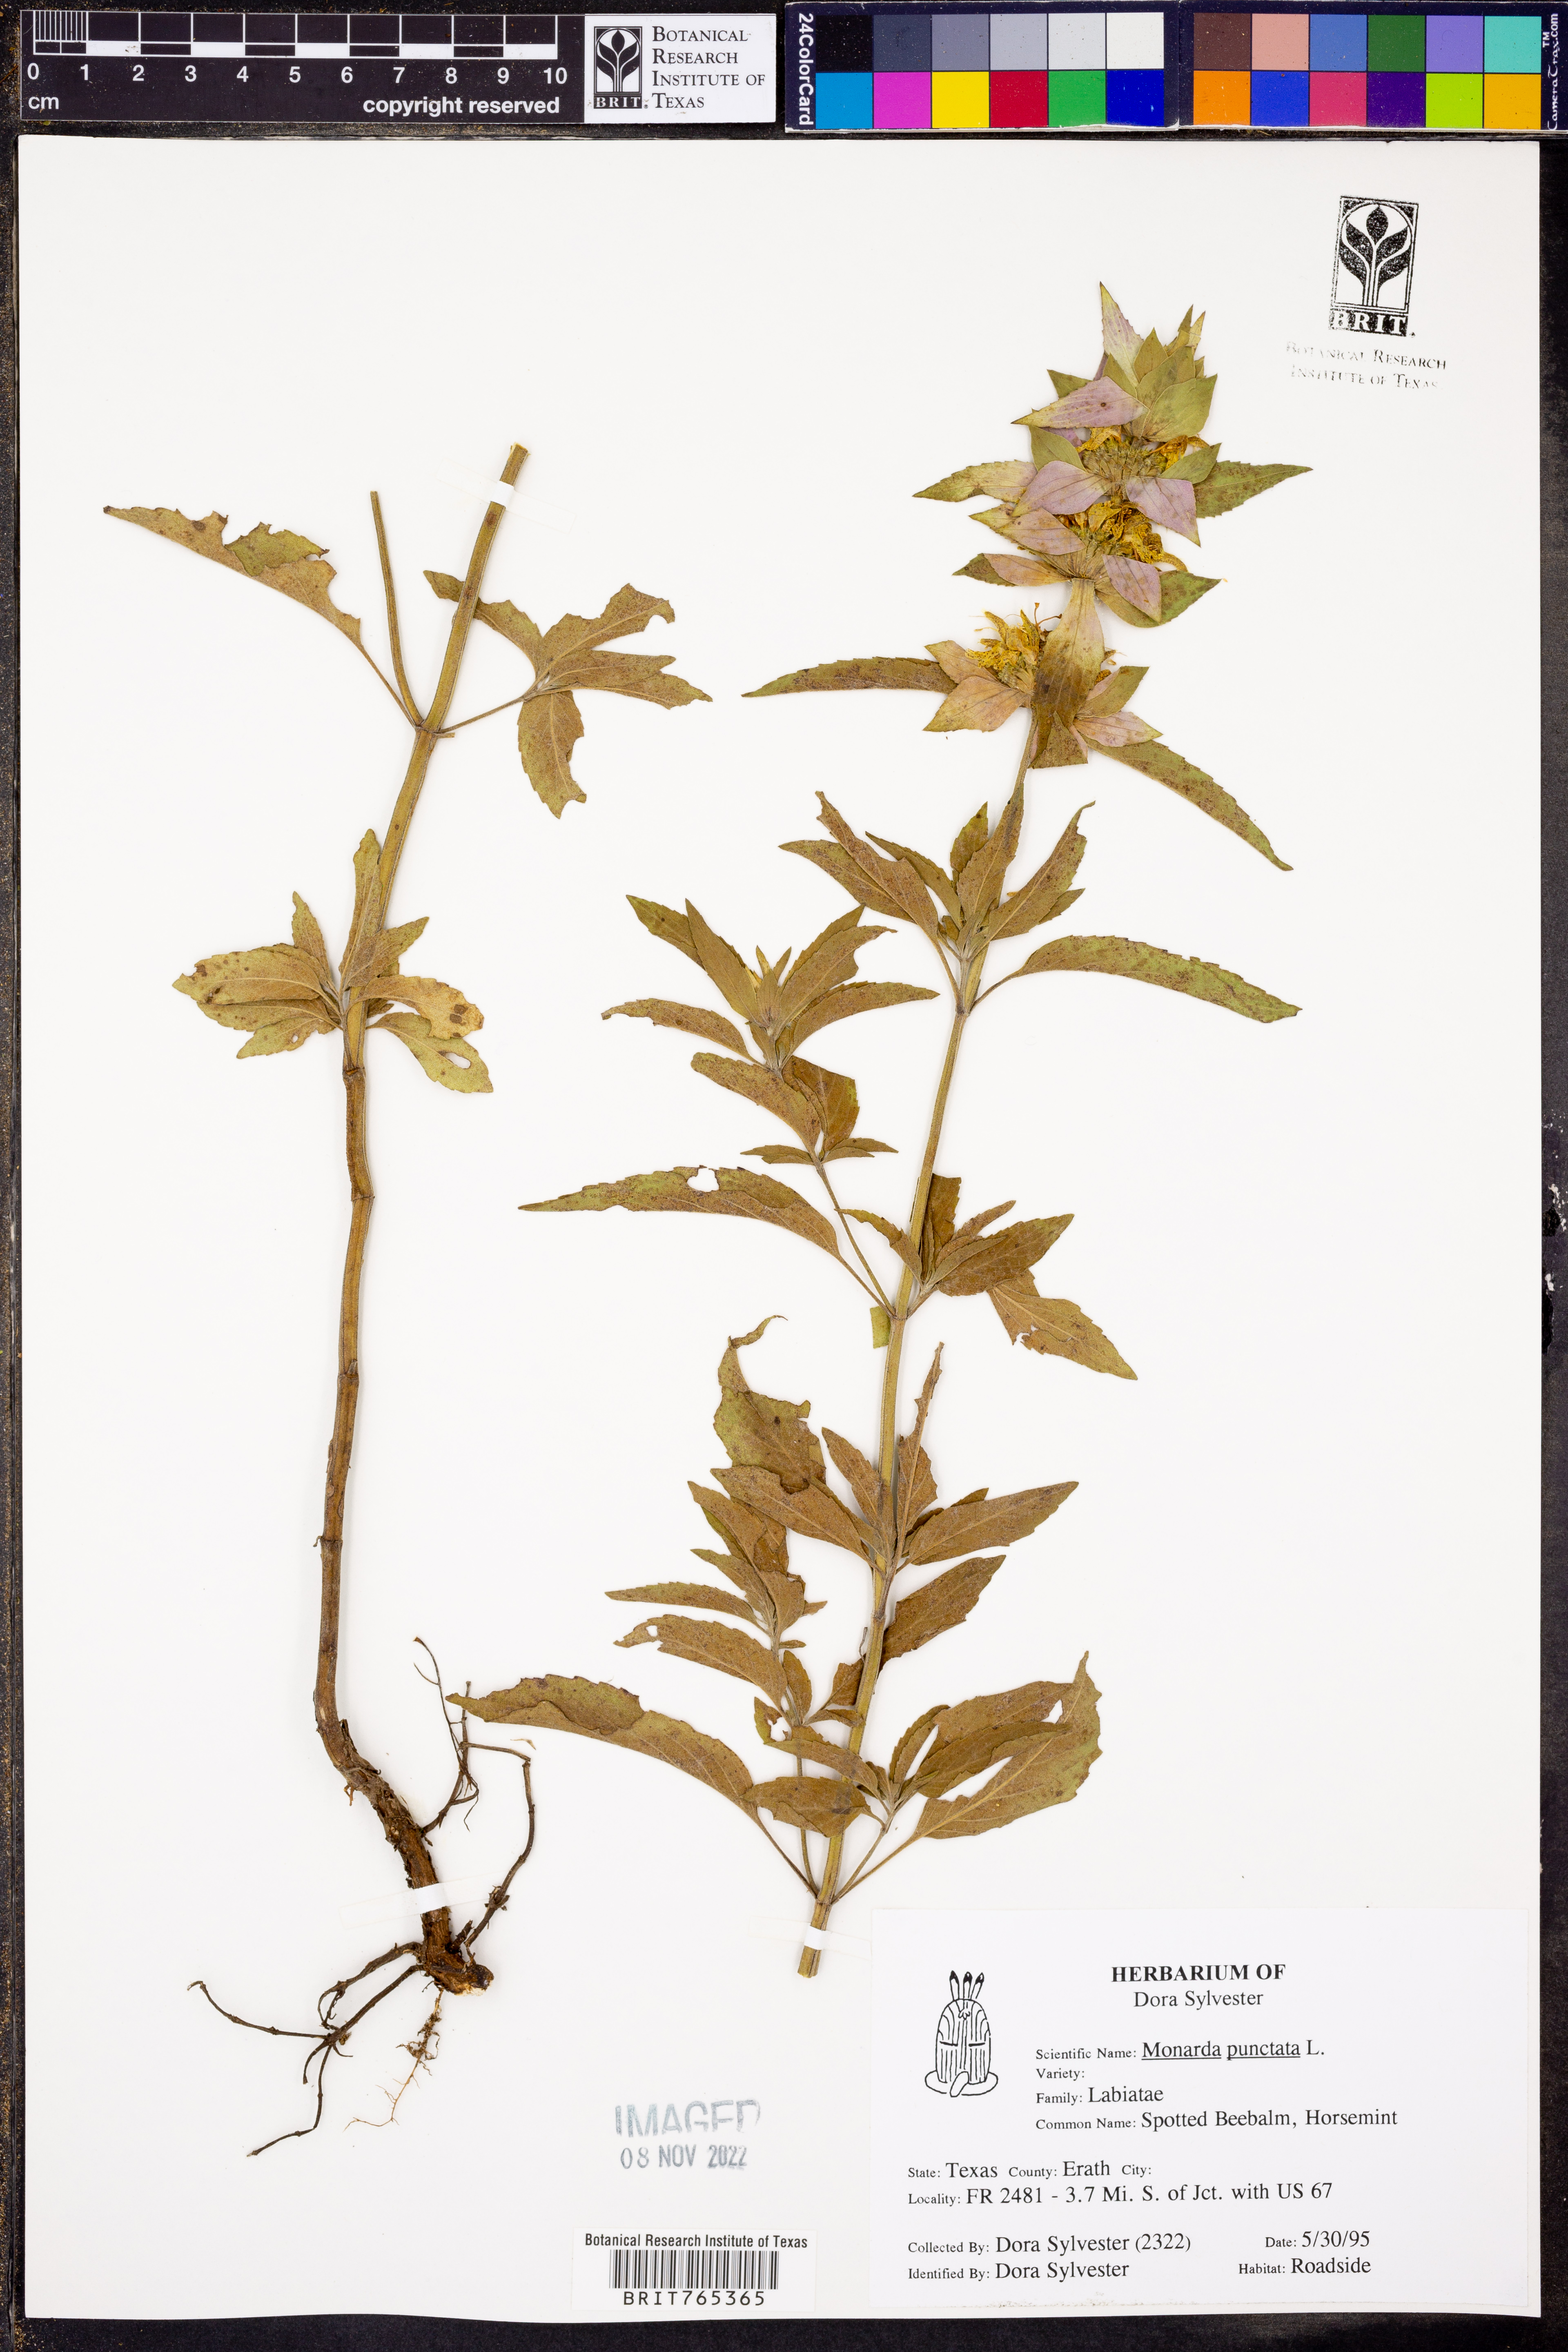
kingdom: Plantae
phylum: Tracheophyta
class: Magnoliopsida
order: Lamiales
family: Lamiaceae
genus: Monarda
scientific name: Monarda punctata
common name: Dotted monarda
